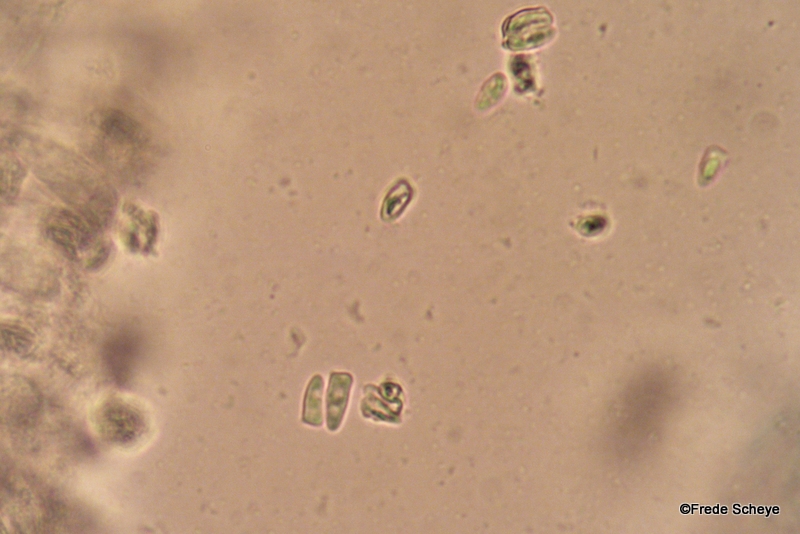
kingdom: Fungi
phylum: Basidiomycota
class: Agaricomycetes
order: Agaricales
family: Agaricaceae
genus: Lepiota
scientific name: Lepiota cristata
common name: stinkende parasolhat
